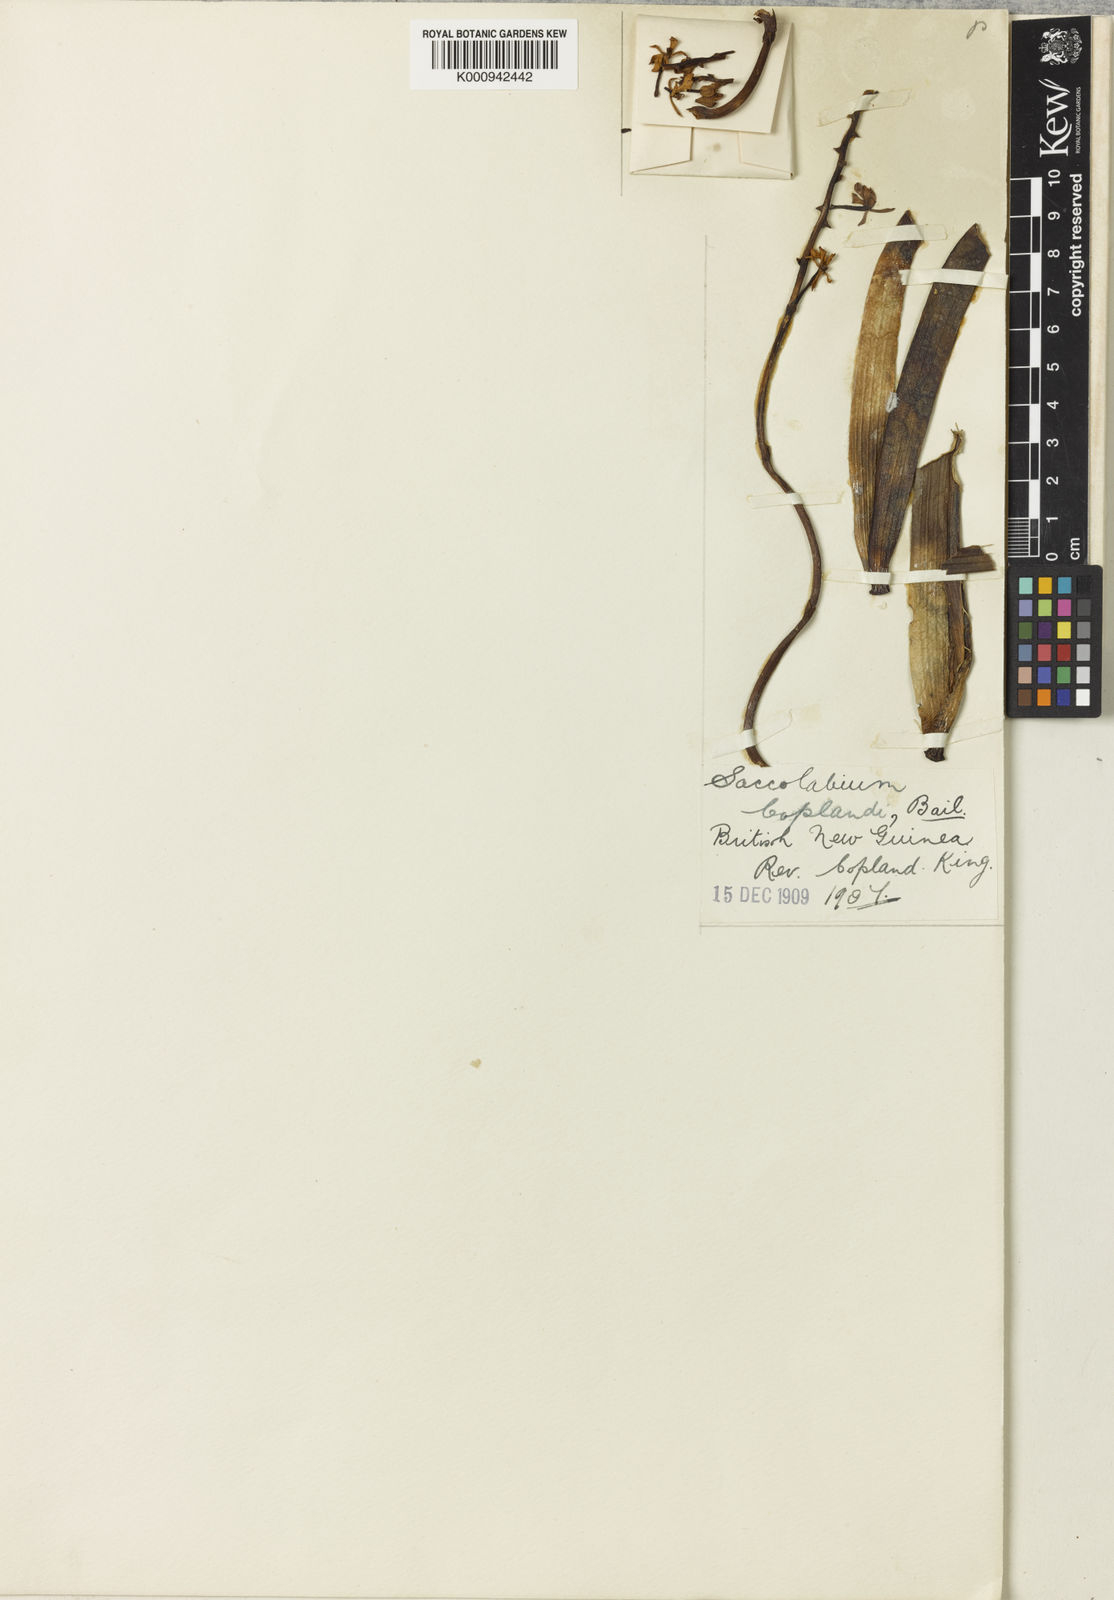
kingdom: Plantae
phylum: Tracheophyta
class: Liliopsida
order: Asparagales
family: Orchidaceae
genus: Micropera
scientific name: Micropera fasciculata
